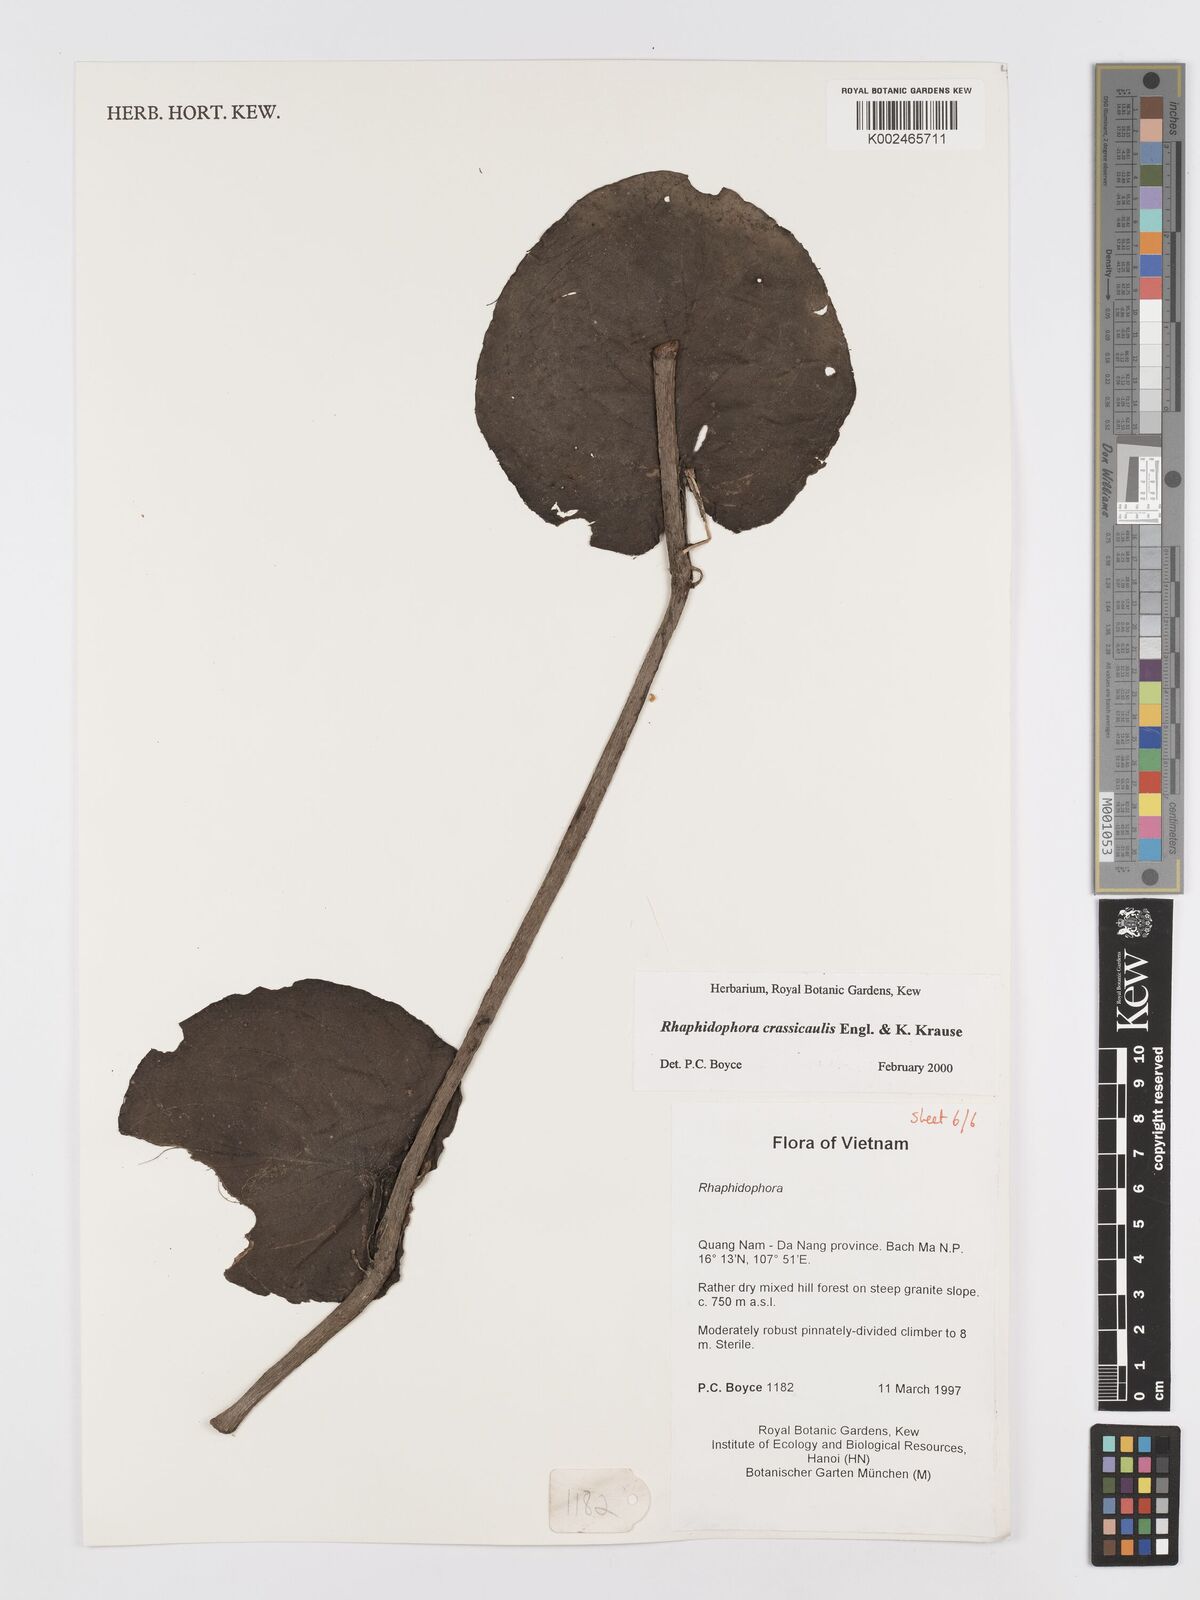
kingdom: Plantae
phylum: Tracheophyta
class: Liliopsida
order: Alismatales
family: Araceae
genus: Rhaphidophora
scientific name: Rhaphidophora crassicaulis
